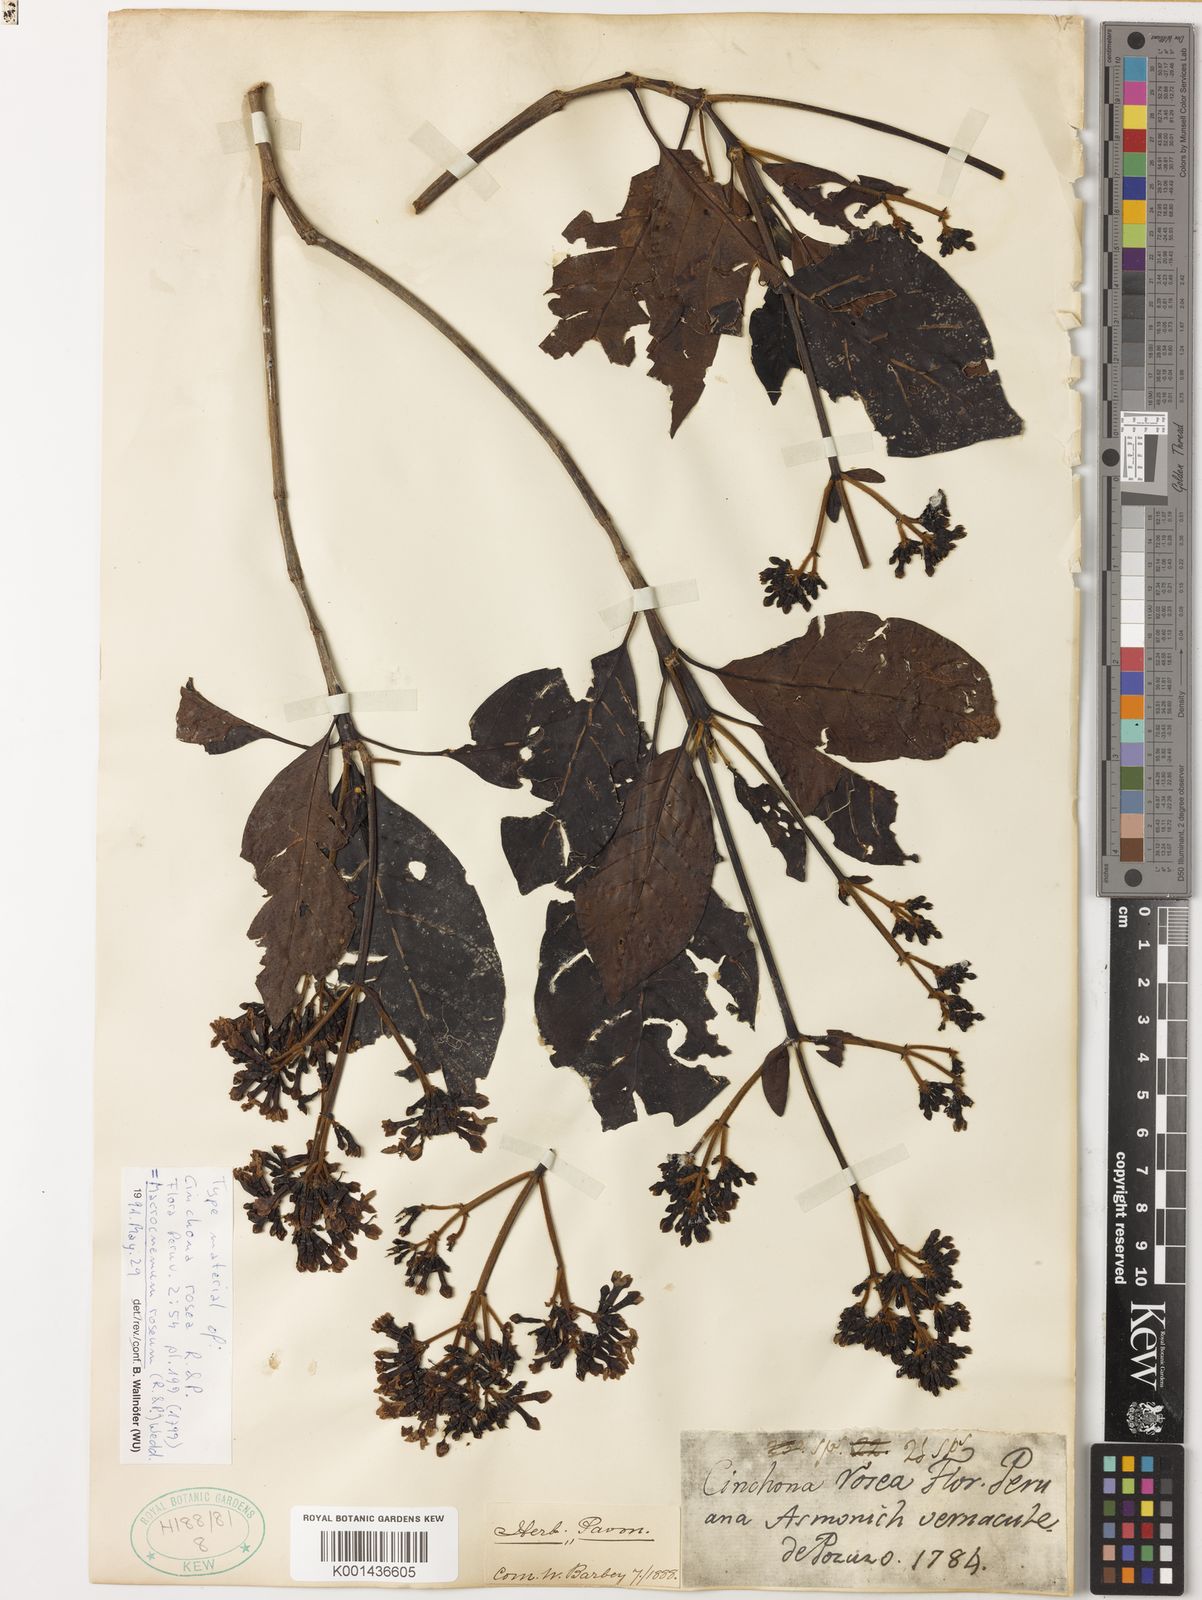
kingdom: Plantae
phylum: Tracheophyta
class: Magnoliopsida
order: Gentianales
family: Rubiaceae
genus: Macrocnemum
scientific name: Macrocnemum roseum
